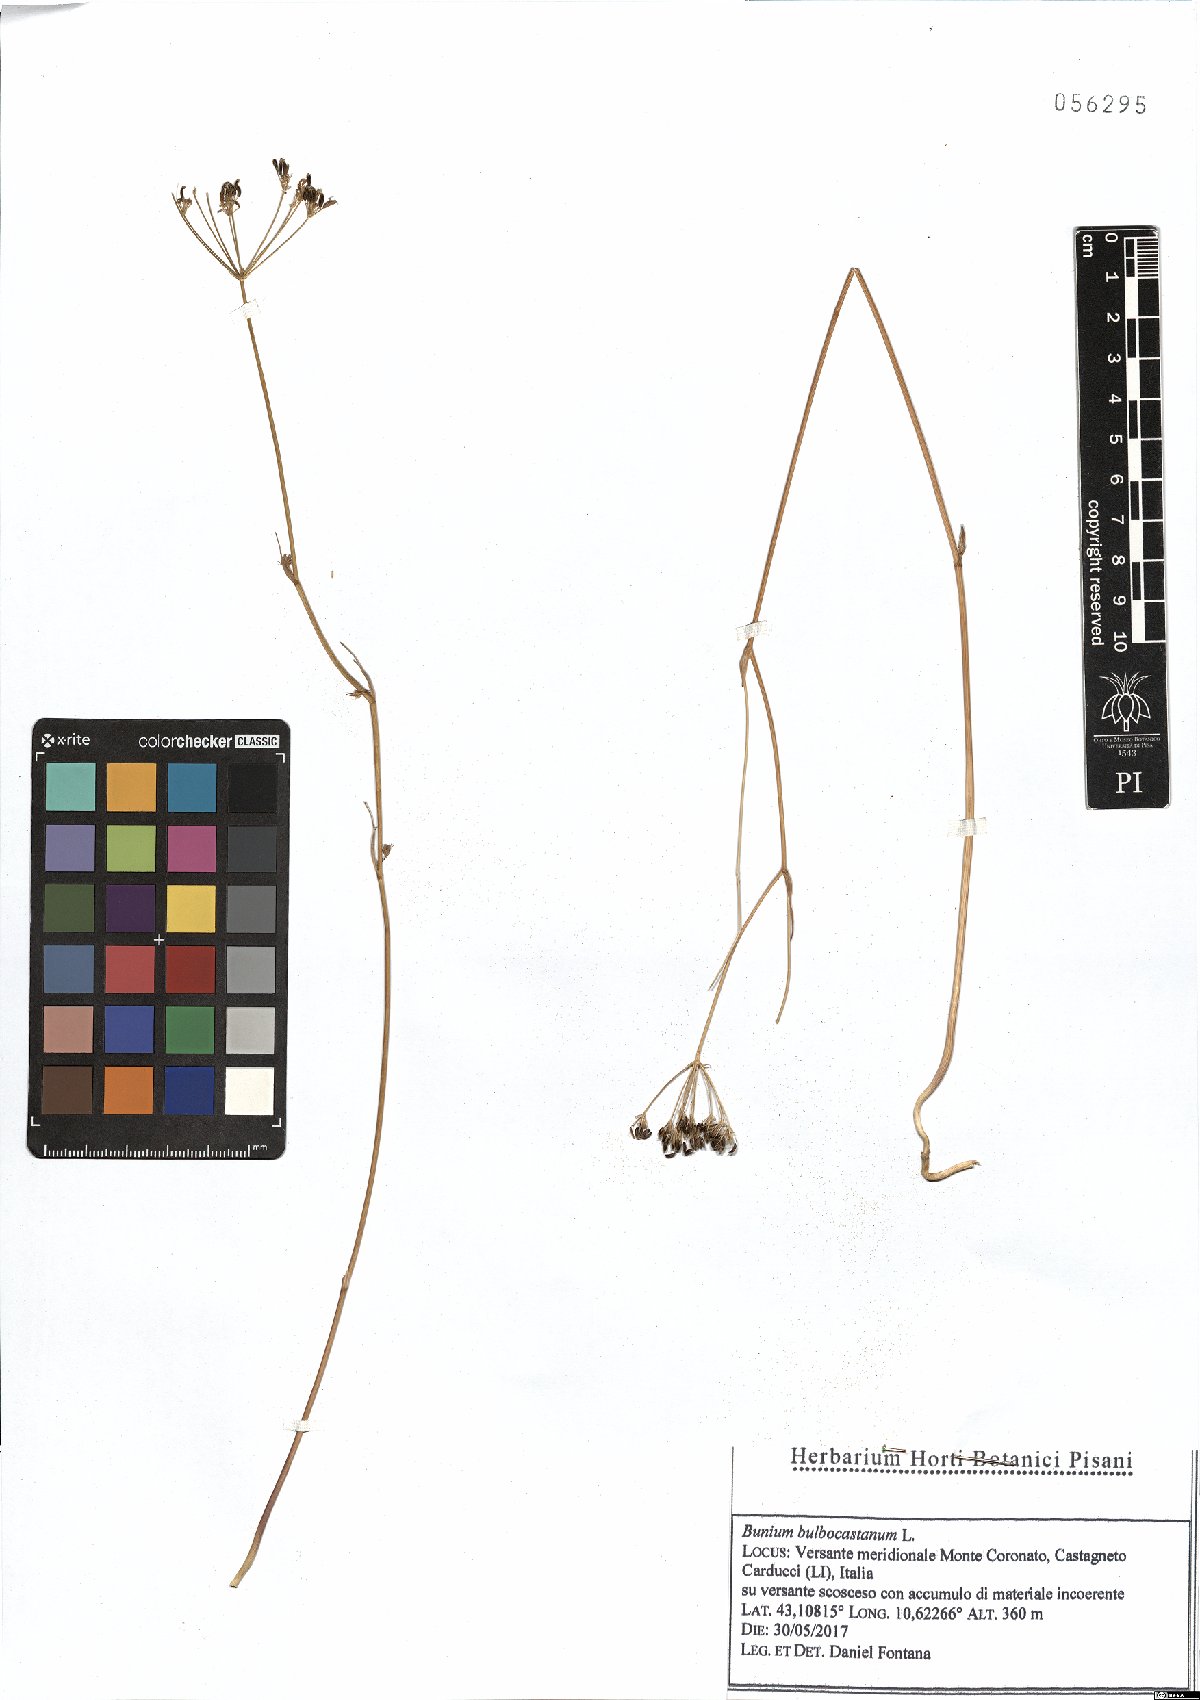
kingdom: Plantae
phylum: Tracheophyta
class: Magnoliopsida
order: Apiales
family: Apiaceae
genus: Bunium
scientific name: Bunium bulbocastanum
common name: Great pignut
